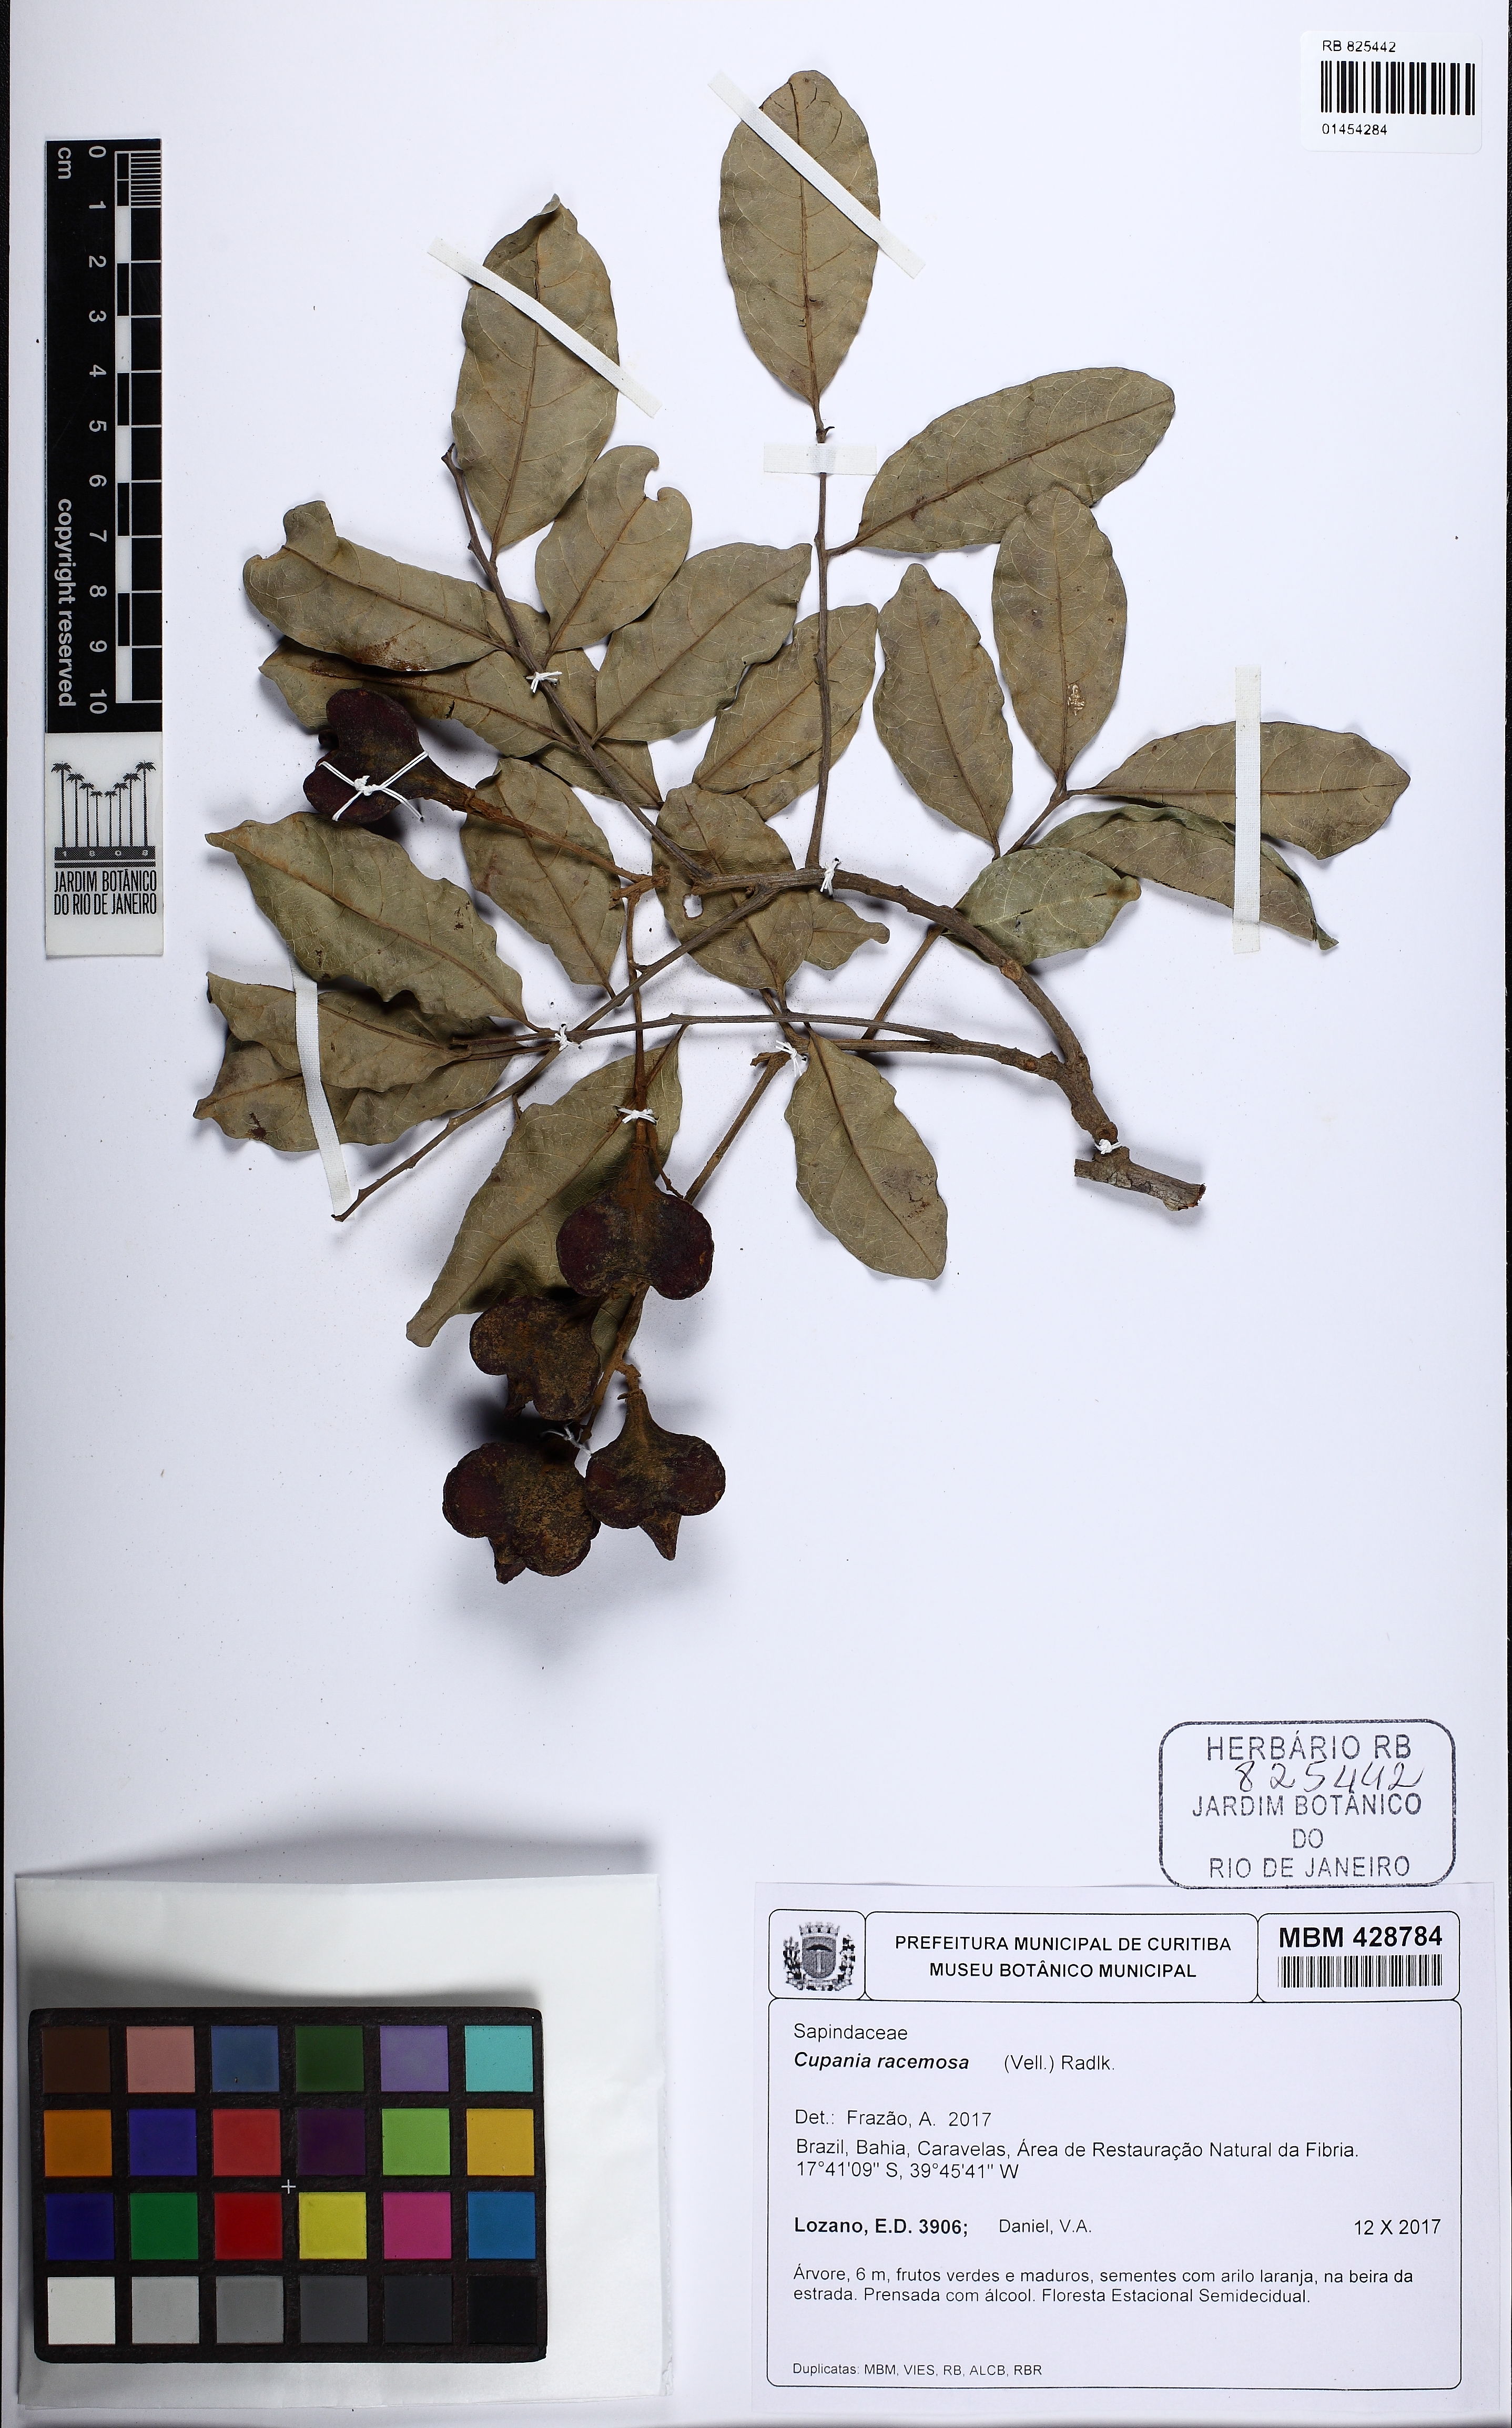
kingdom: Plantae
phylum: Tracheophyta
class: Magnoliopsida
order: Sapindales
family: Sapindaceae
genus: Cupania
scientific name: Cupania racemosa
